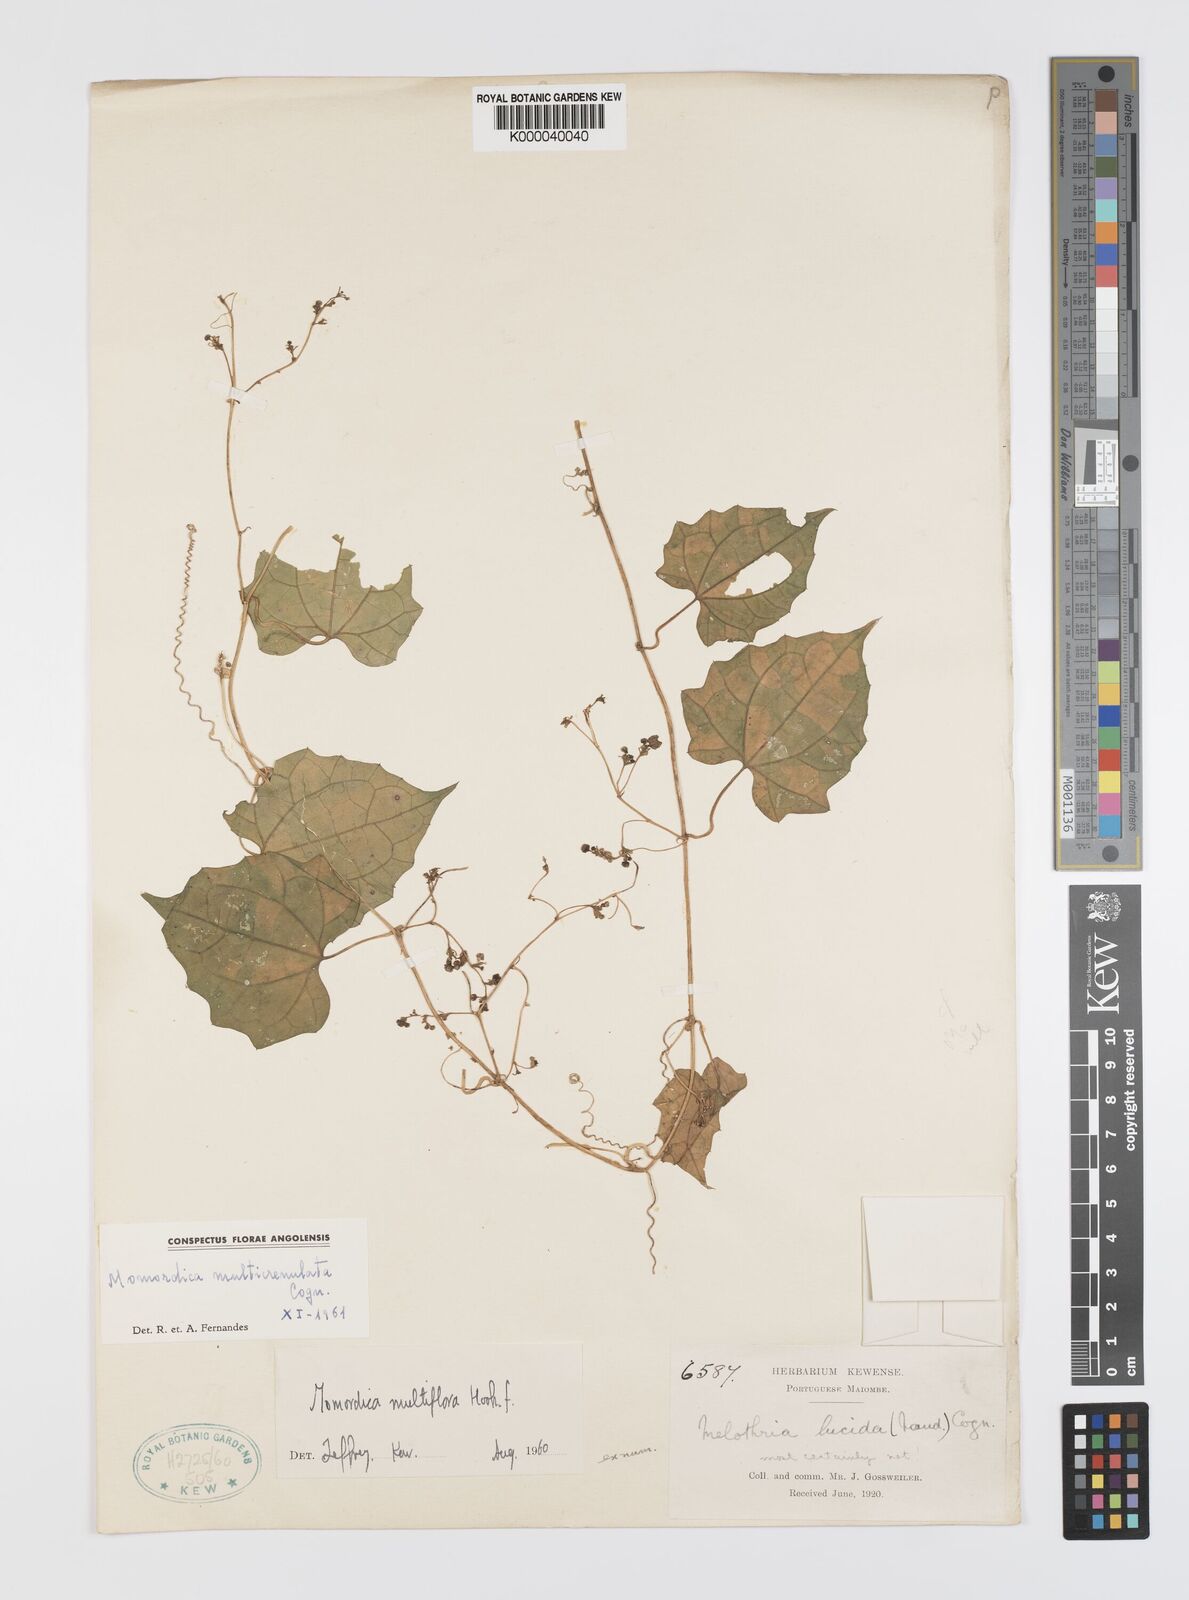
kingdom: Plantae
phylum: Tracheophyta
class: Magnoliopsida
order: Cucurbitales
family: Cucurbitaceae
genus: Momordica
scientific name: Momordica multiflora
